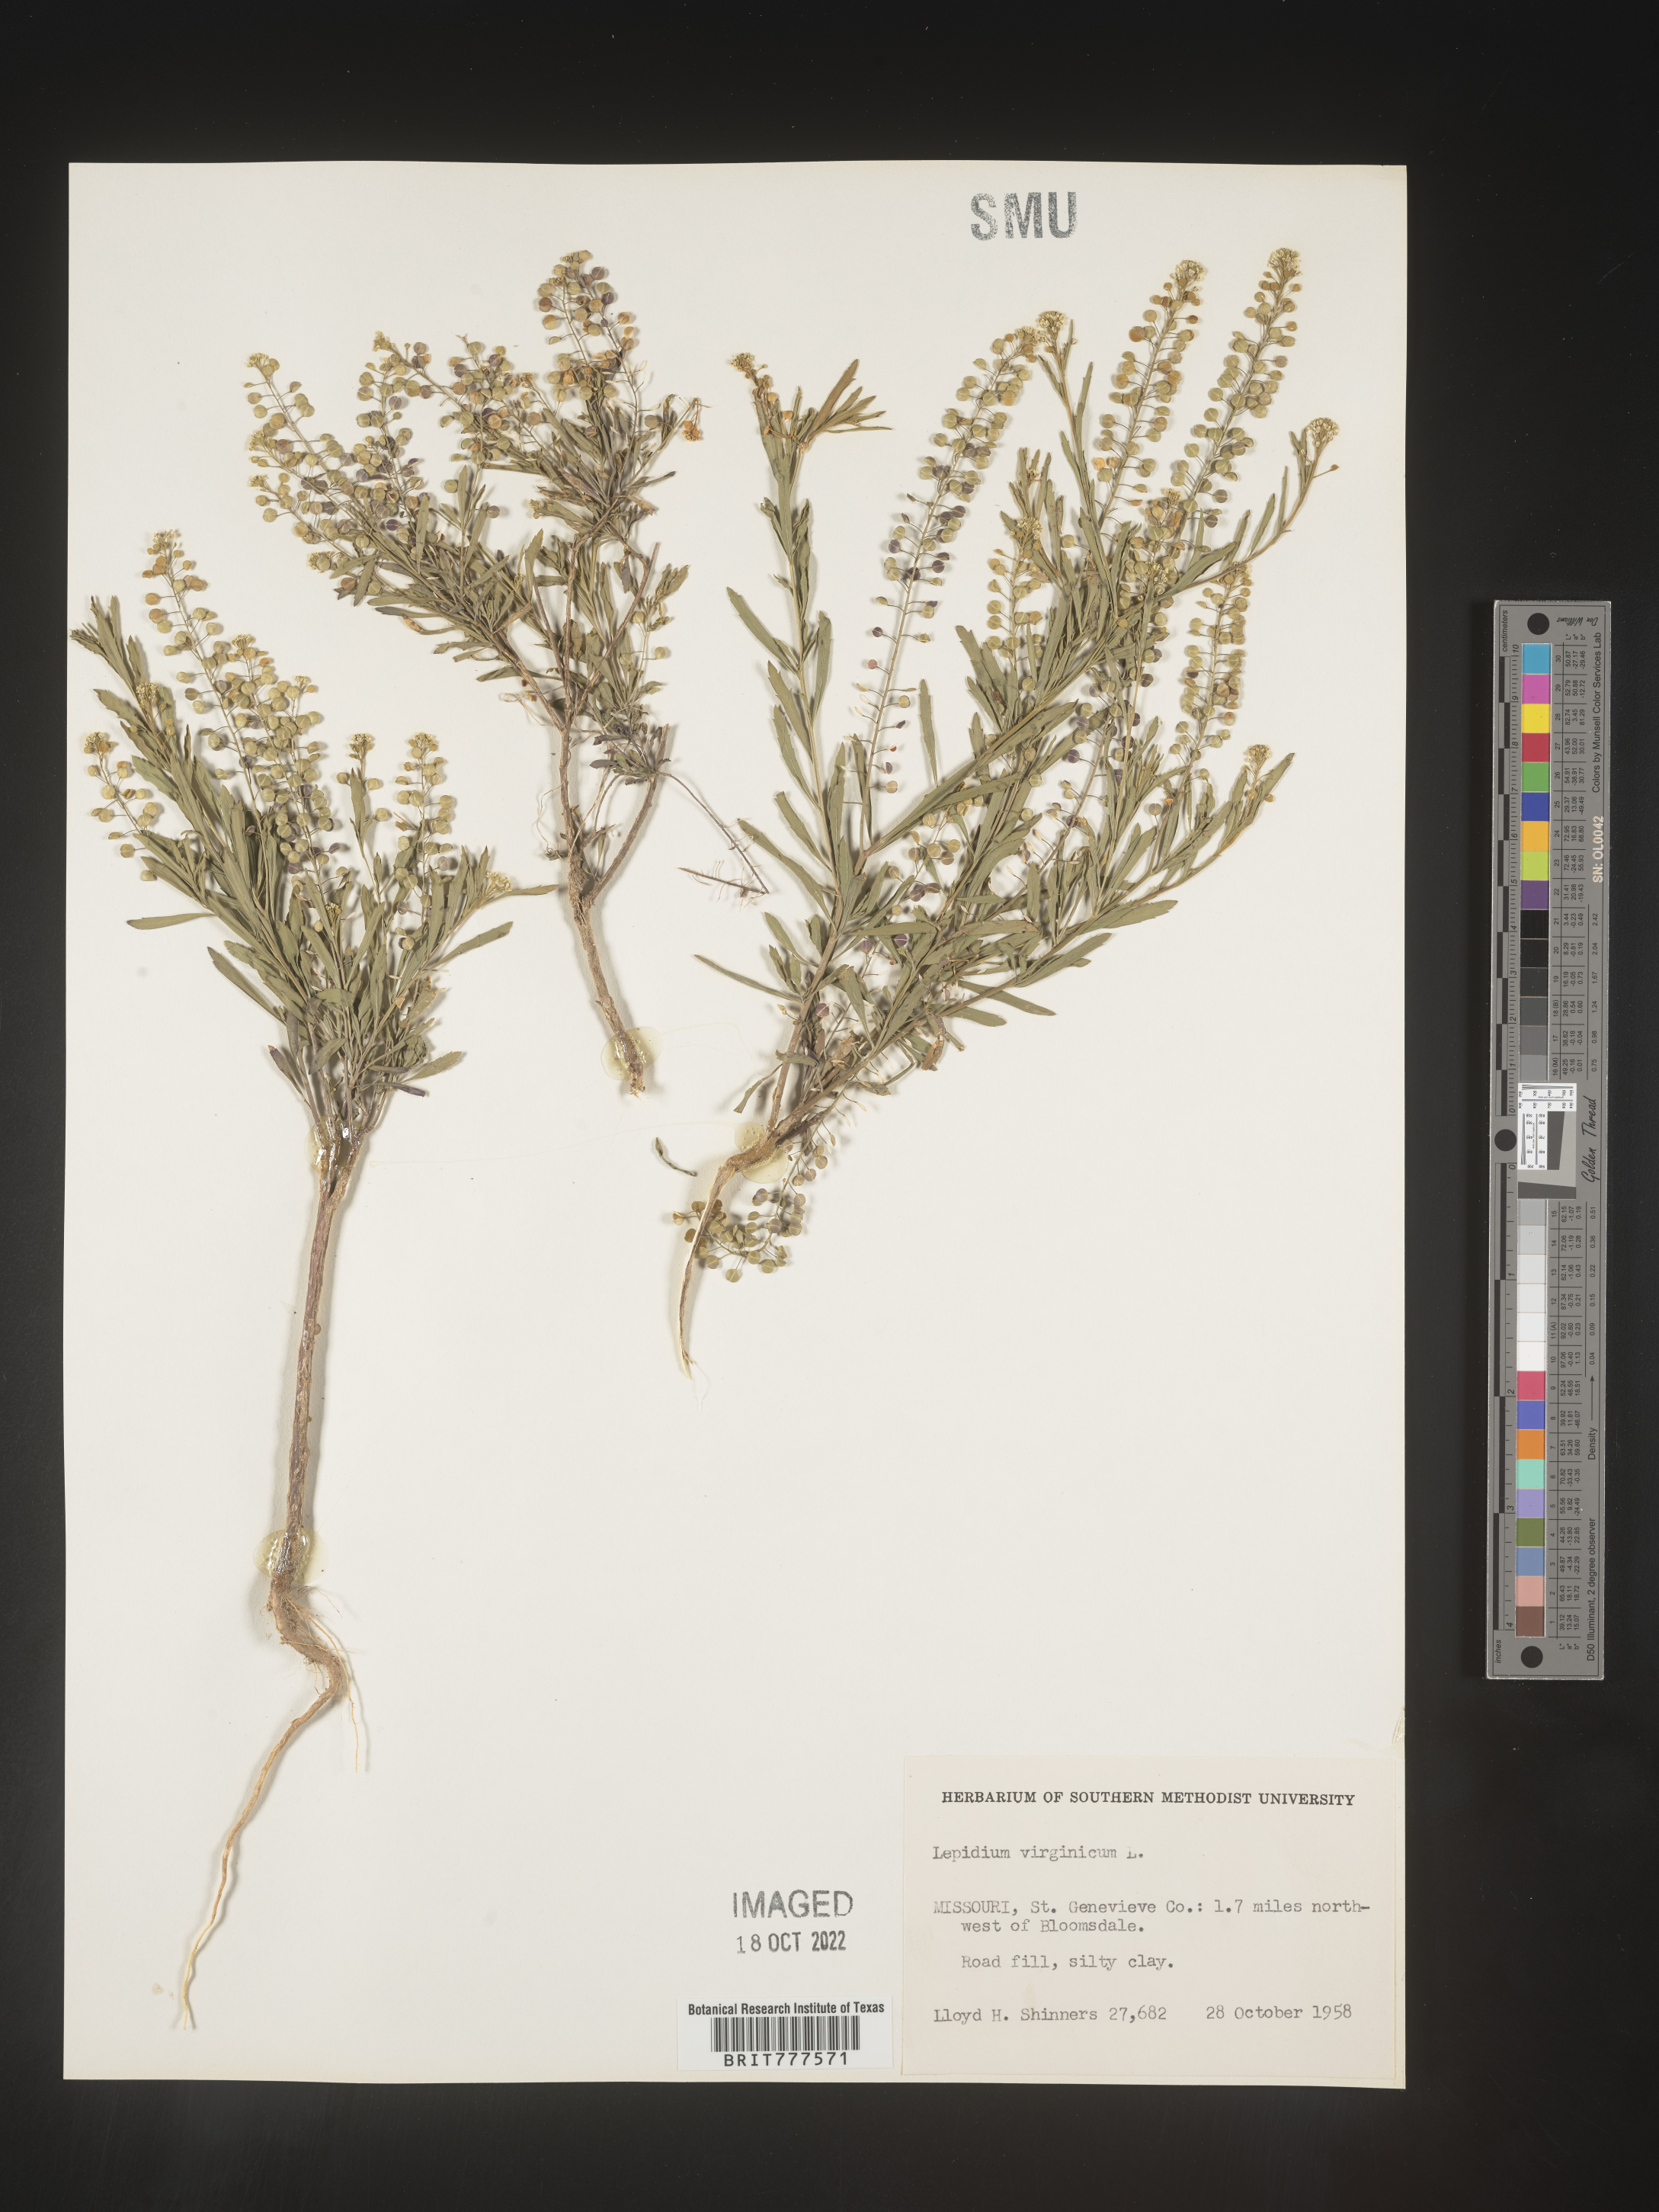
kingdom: Plantae
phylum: Tracheophyta
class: Magnoliopsida
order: Brassicales
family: Brassicaceae
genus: Lepidium
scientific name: Lepidium virginicum
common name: Least pepperwort
